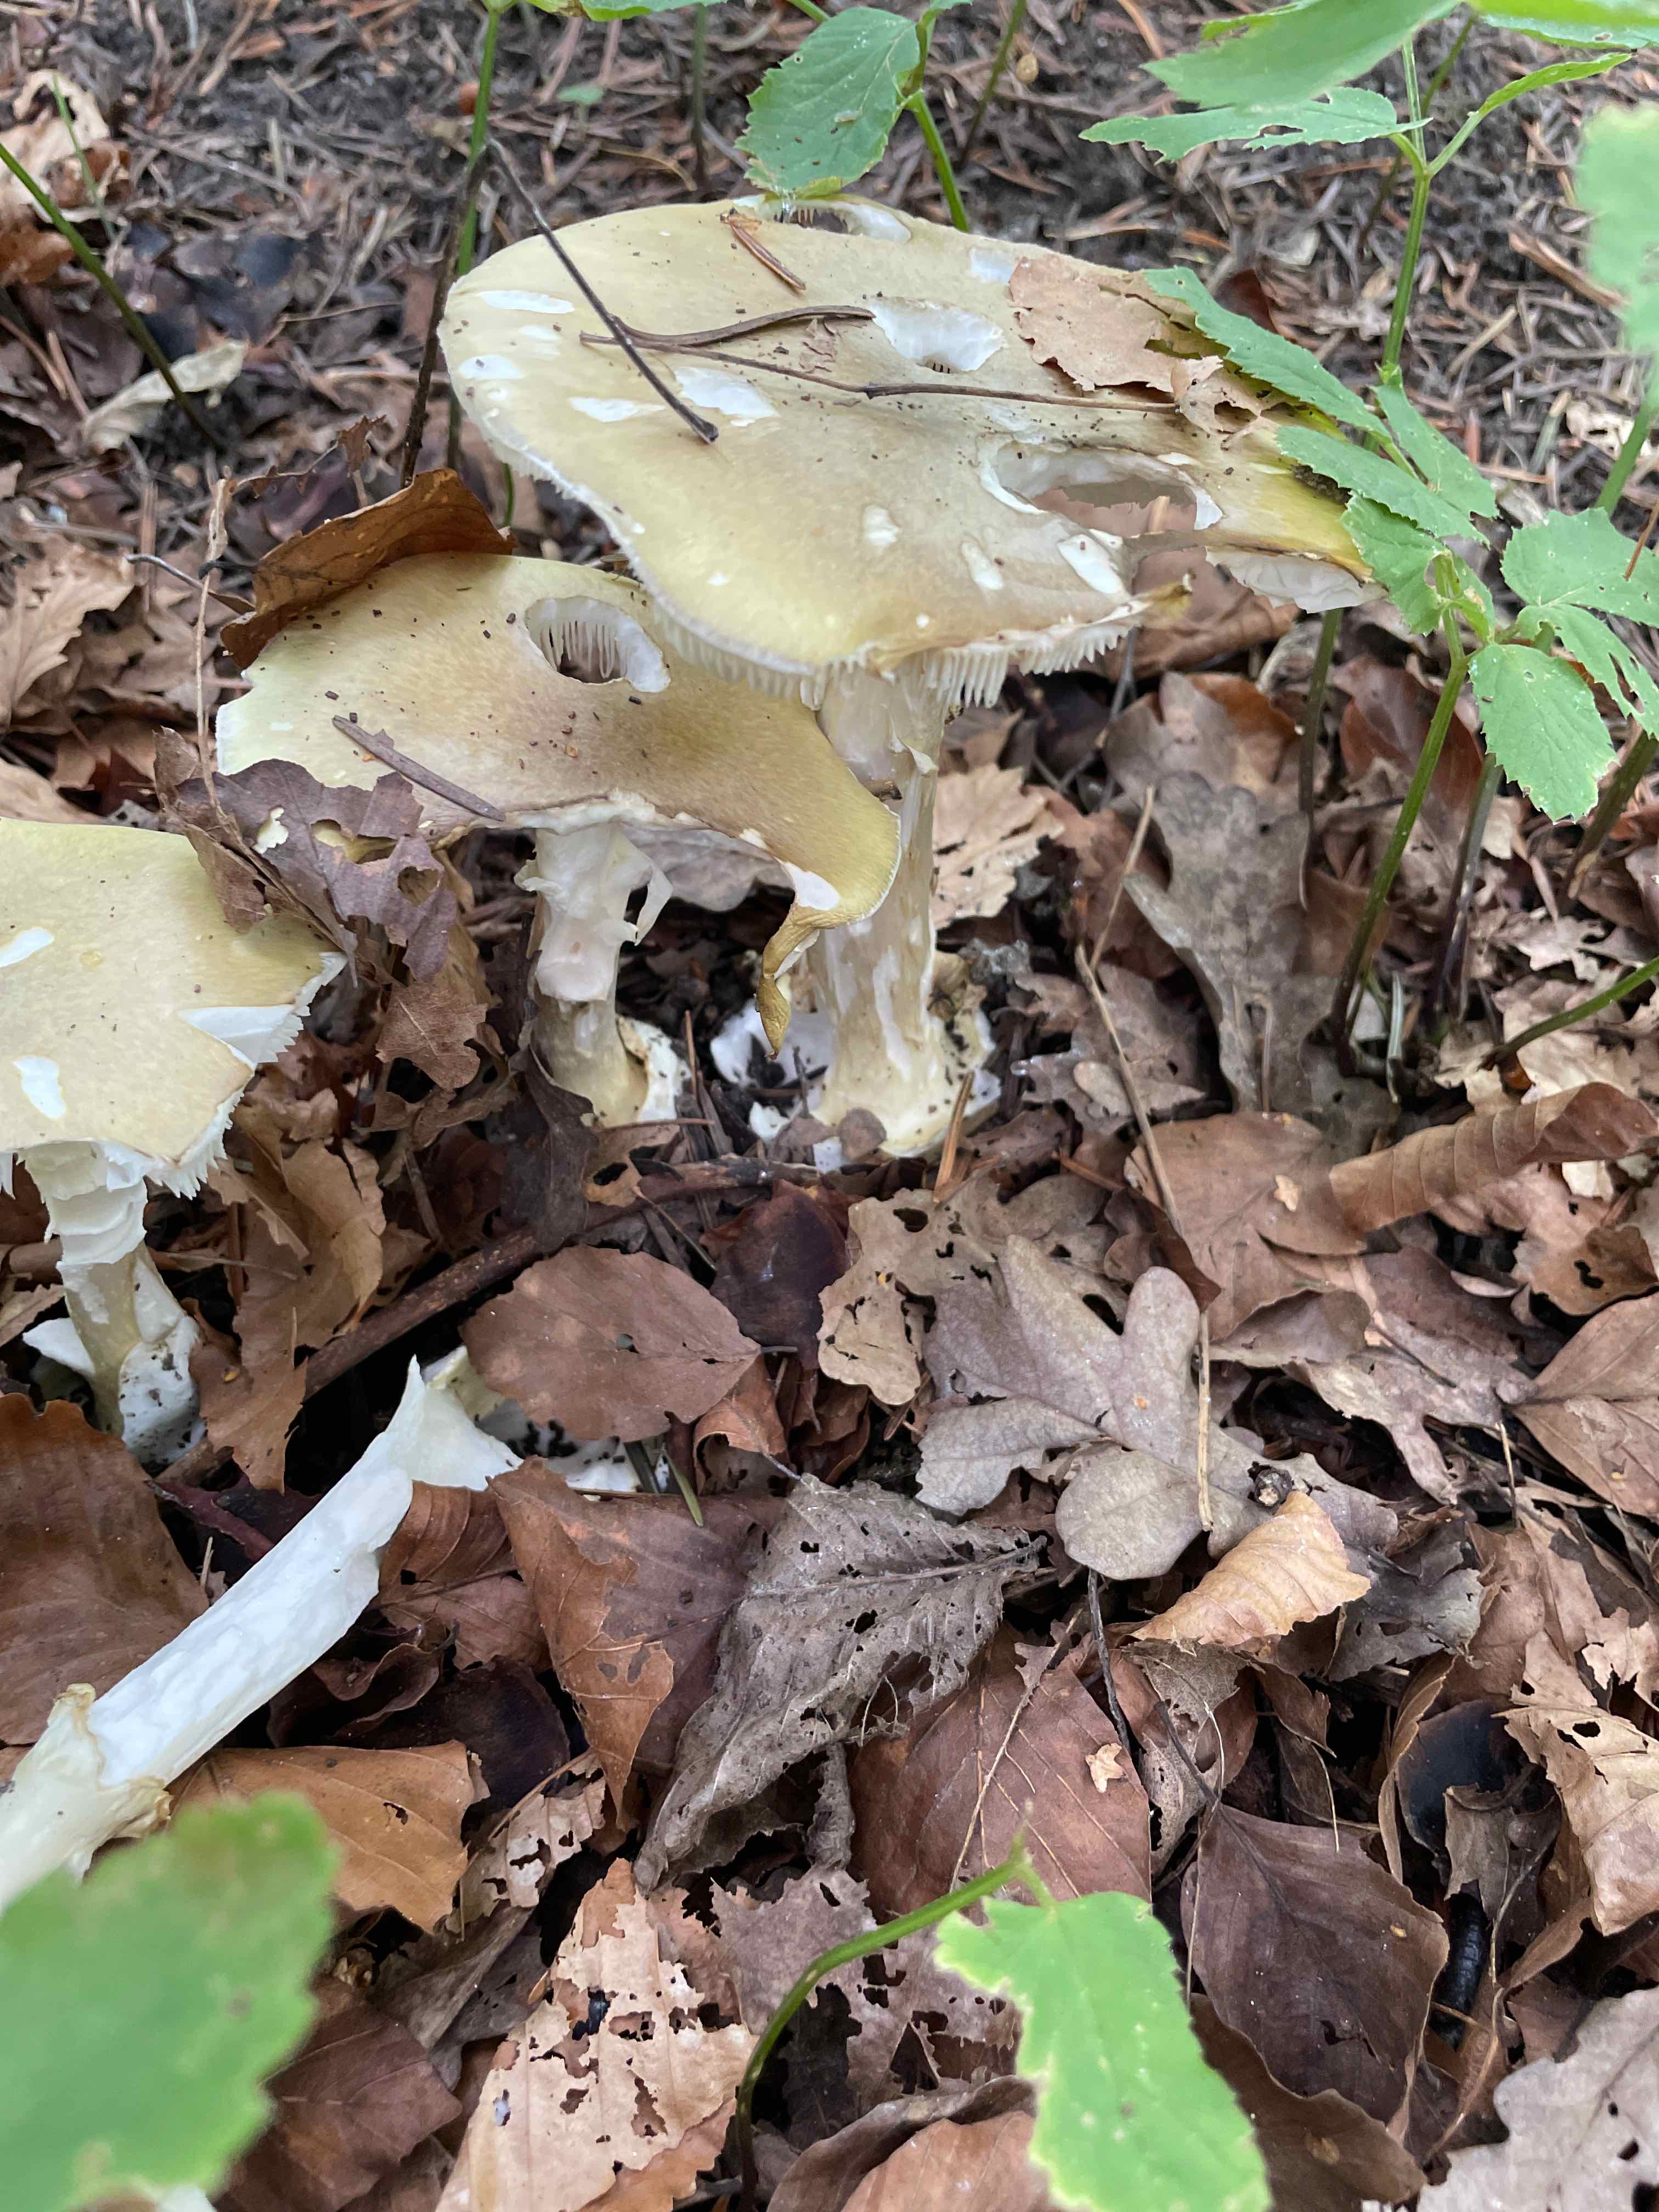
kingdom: Fungi
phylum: Basidiomycota
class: Agaricomycetes
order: Agaricales
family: Amanitaceae
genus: Amanita
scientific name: Amanita phalloides
